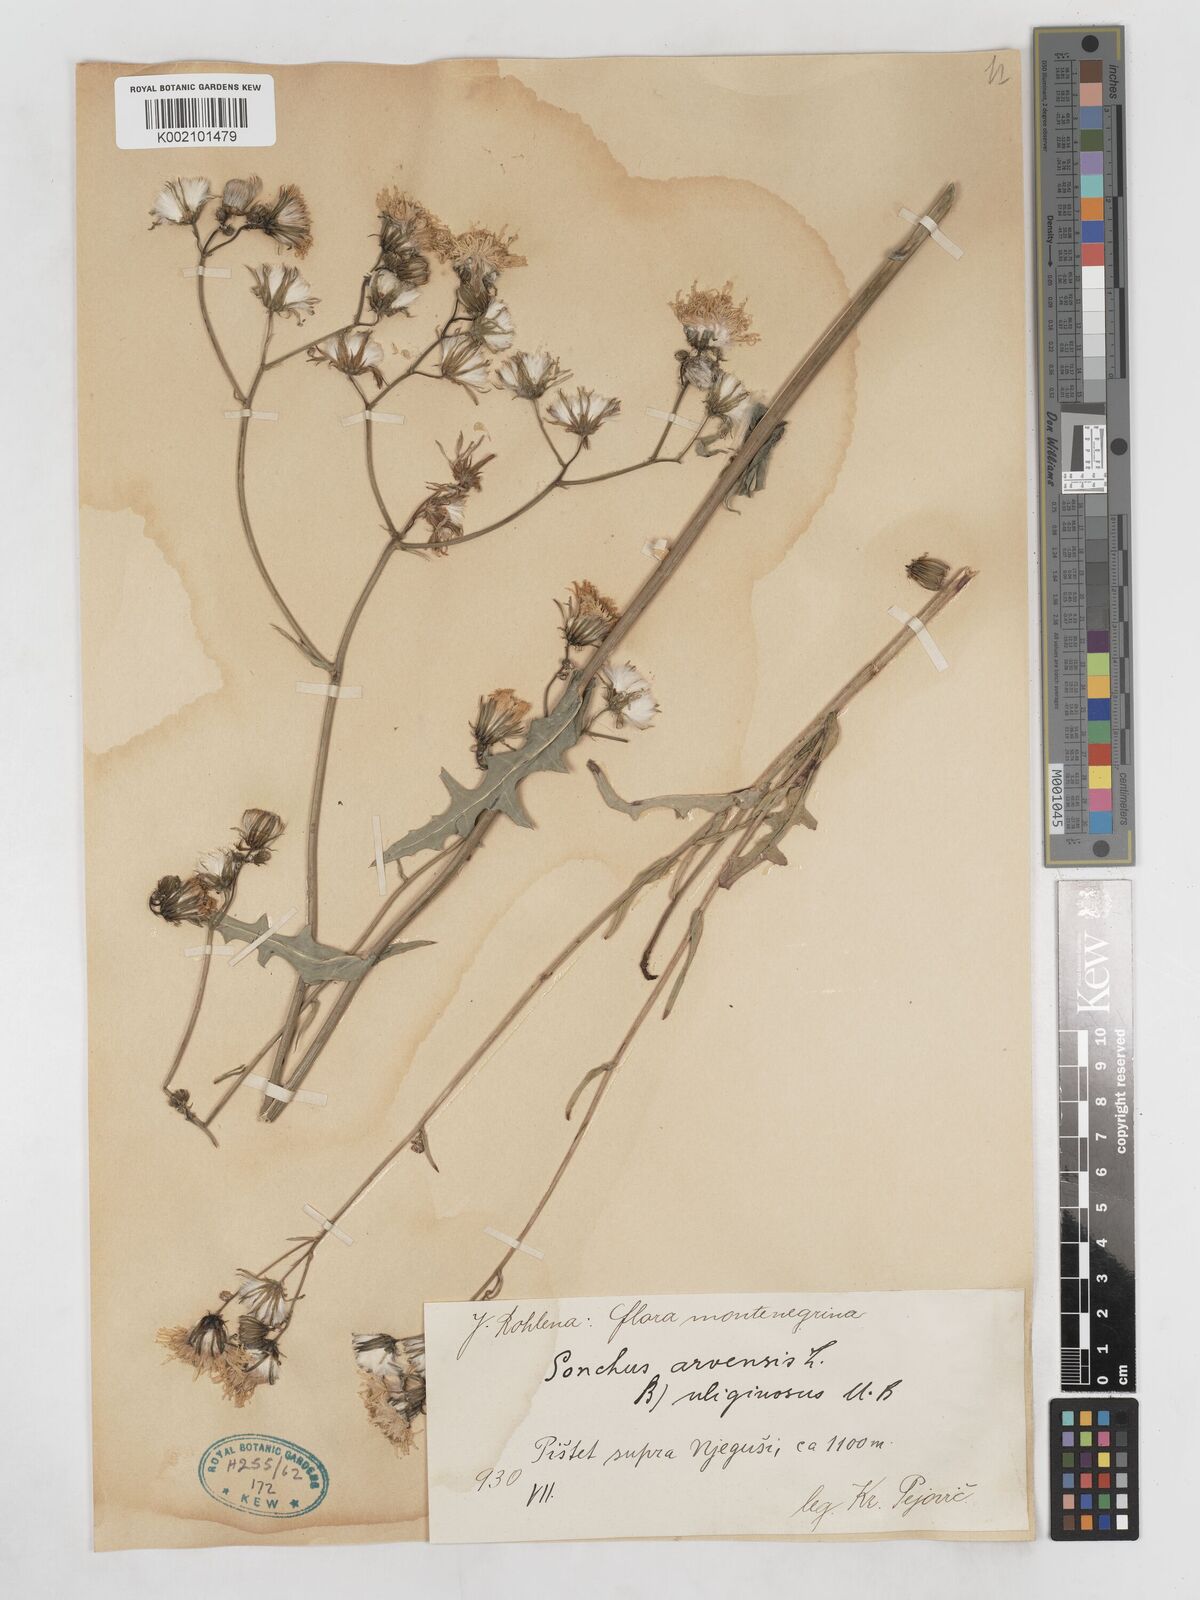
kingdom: Plantae
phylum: Tracheophyta
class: Magnoliopsida
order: Asterales
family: Asteraceae
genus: Sonchus
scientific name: Sonchus arvensis
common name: Perennial sow-thistle
